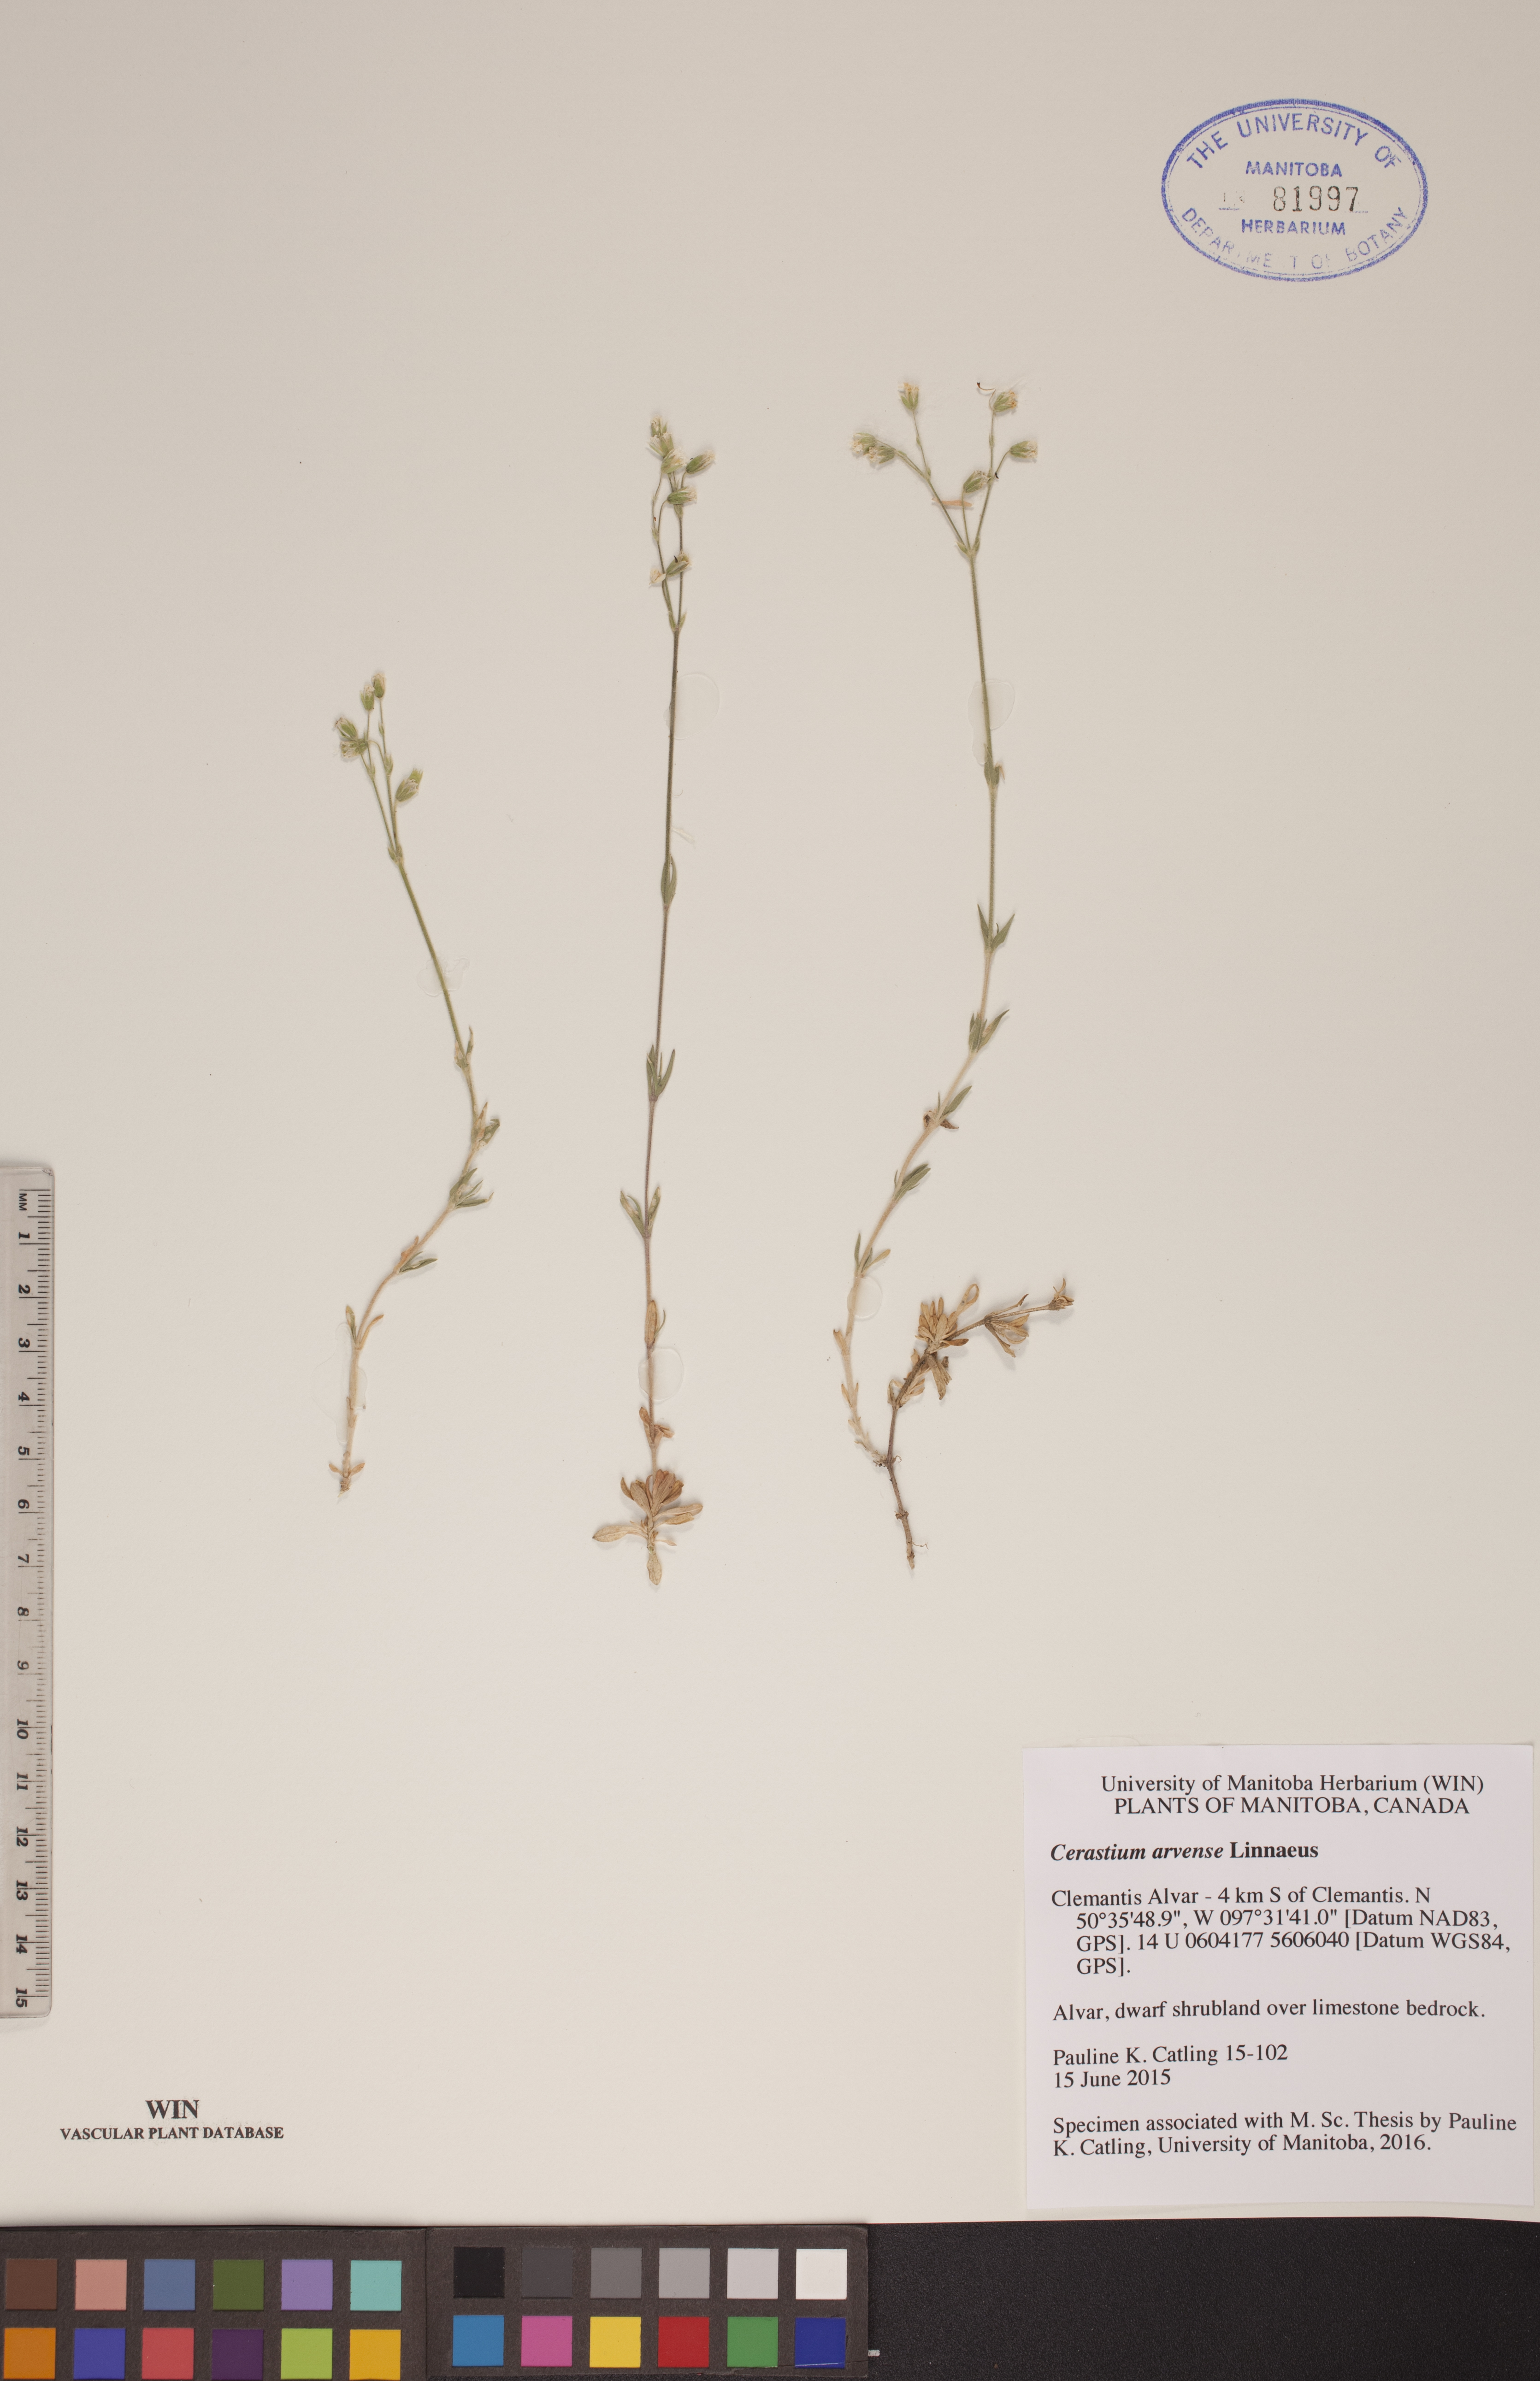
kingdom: Plantae
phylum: Tracheophyta
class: Magnoliopsida
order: Caryophyllales
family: Caryophyllaceae
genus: Cerastium
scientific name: Cerastium arvense
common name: Field mouse-ear
